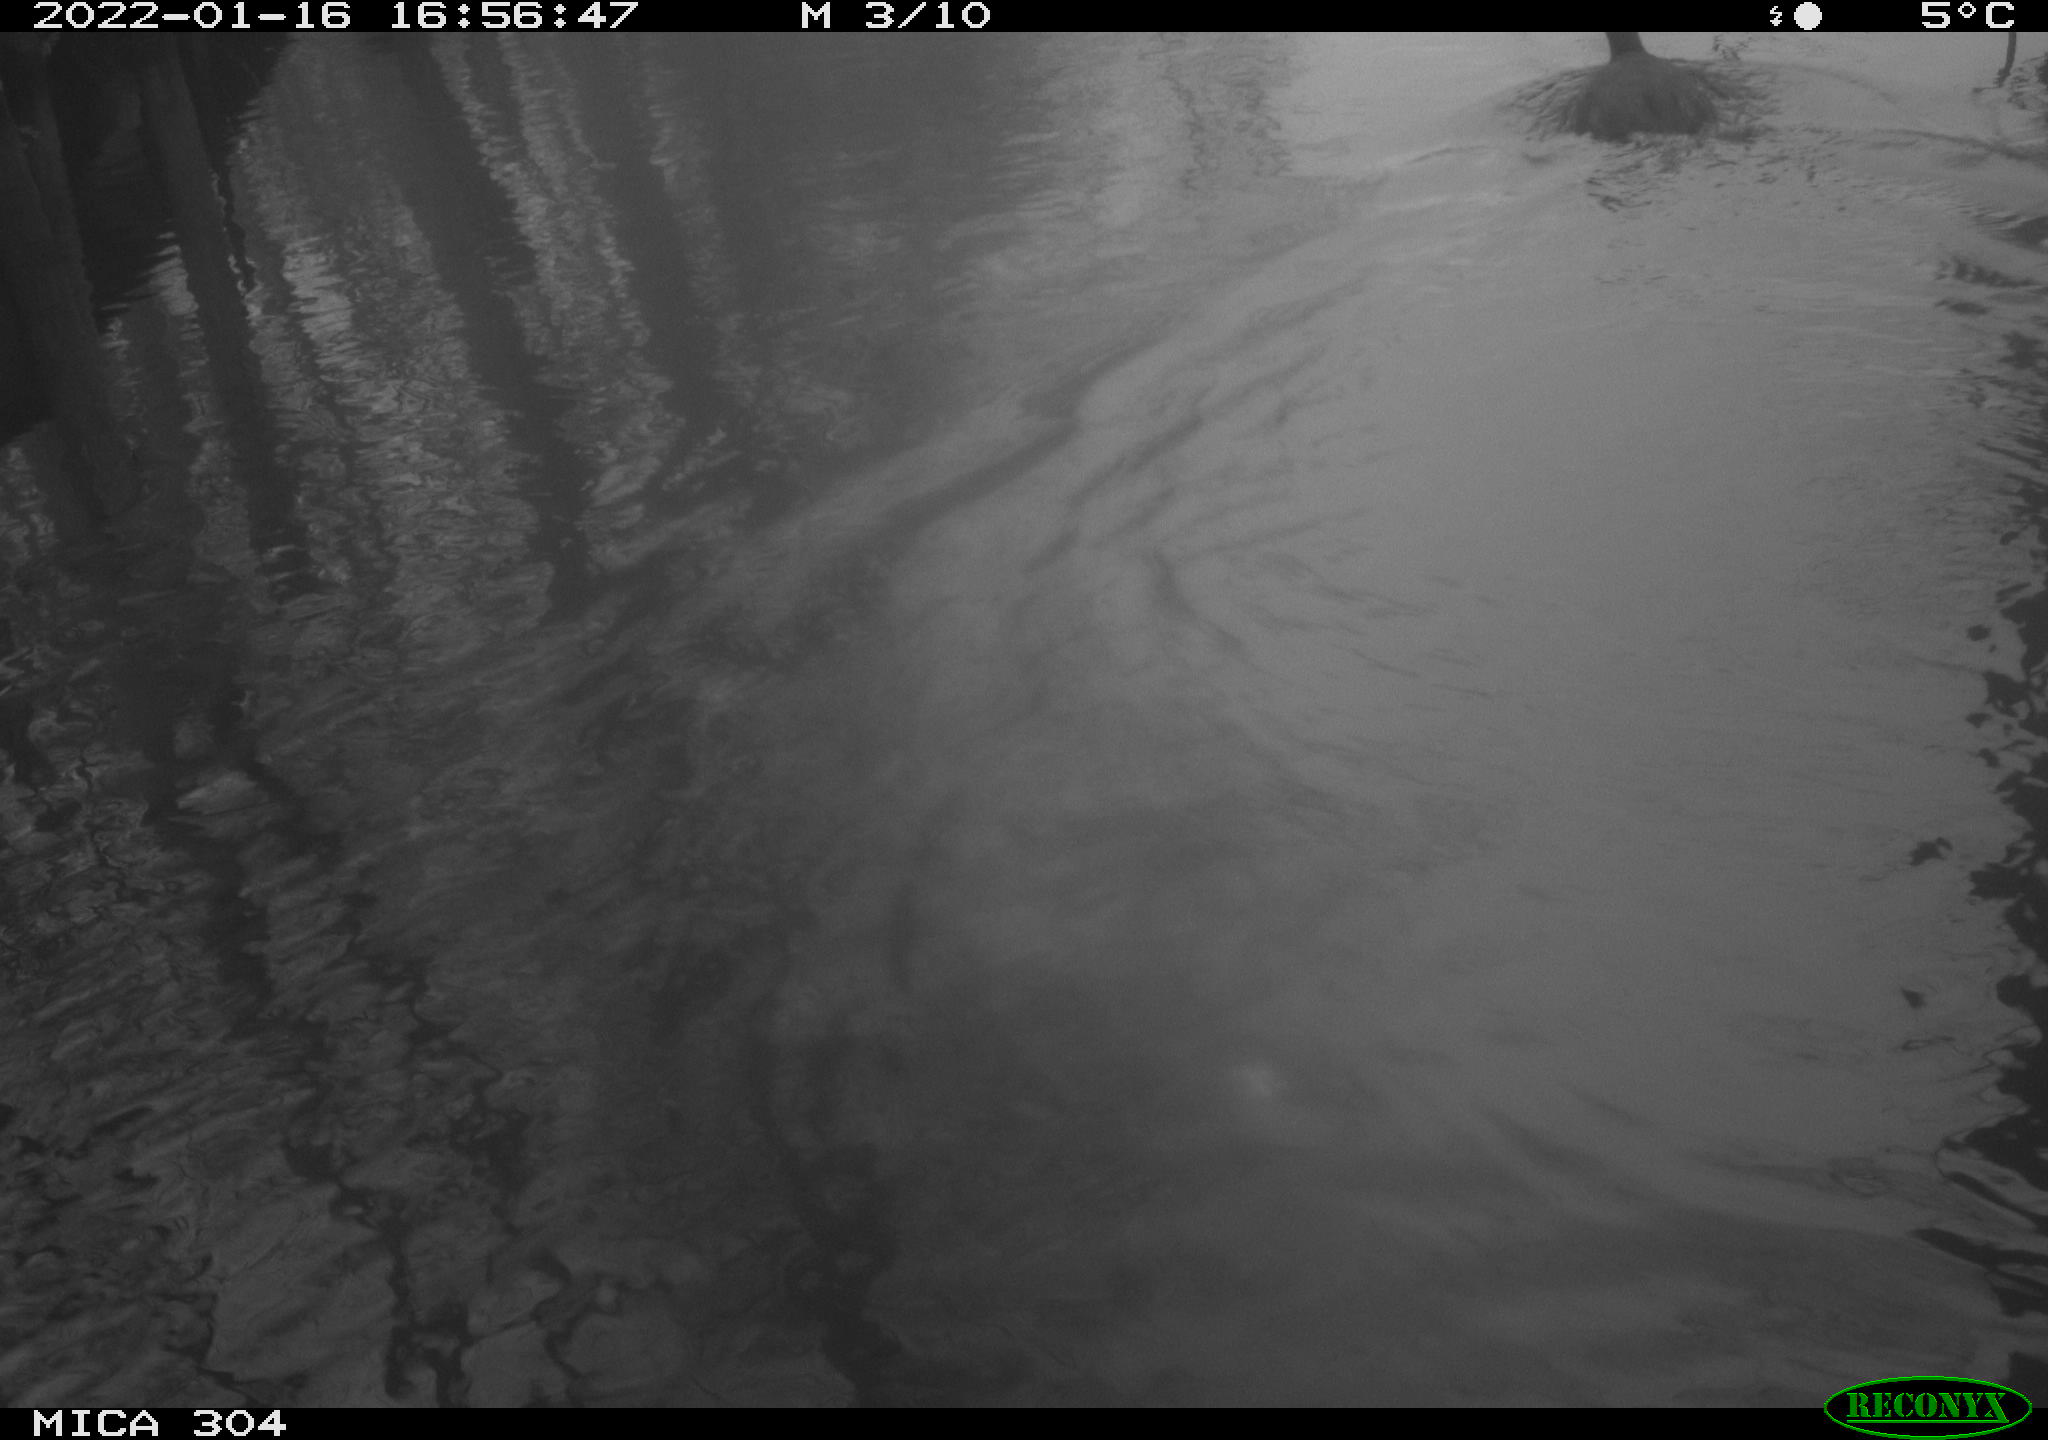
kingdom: Animalia
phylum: Chordata
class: Aves
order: Gruiformes
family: Rallidae
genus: Fulica
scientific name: Fulica atra
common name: Eurasian coot
